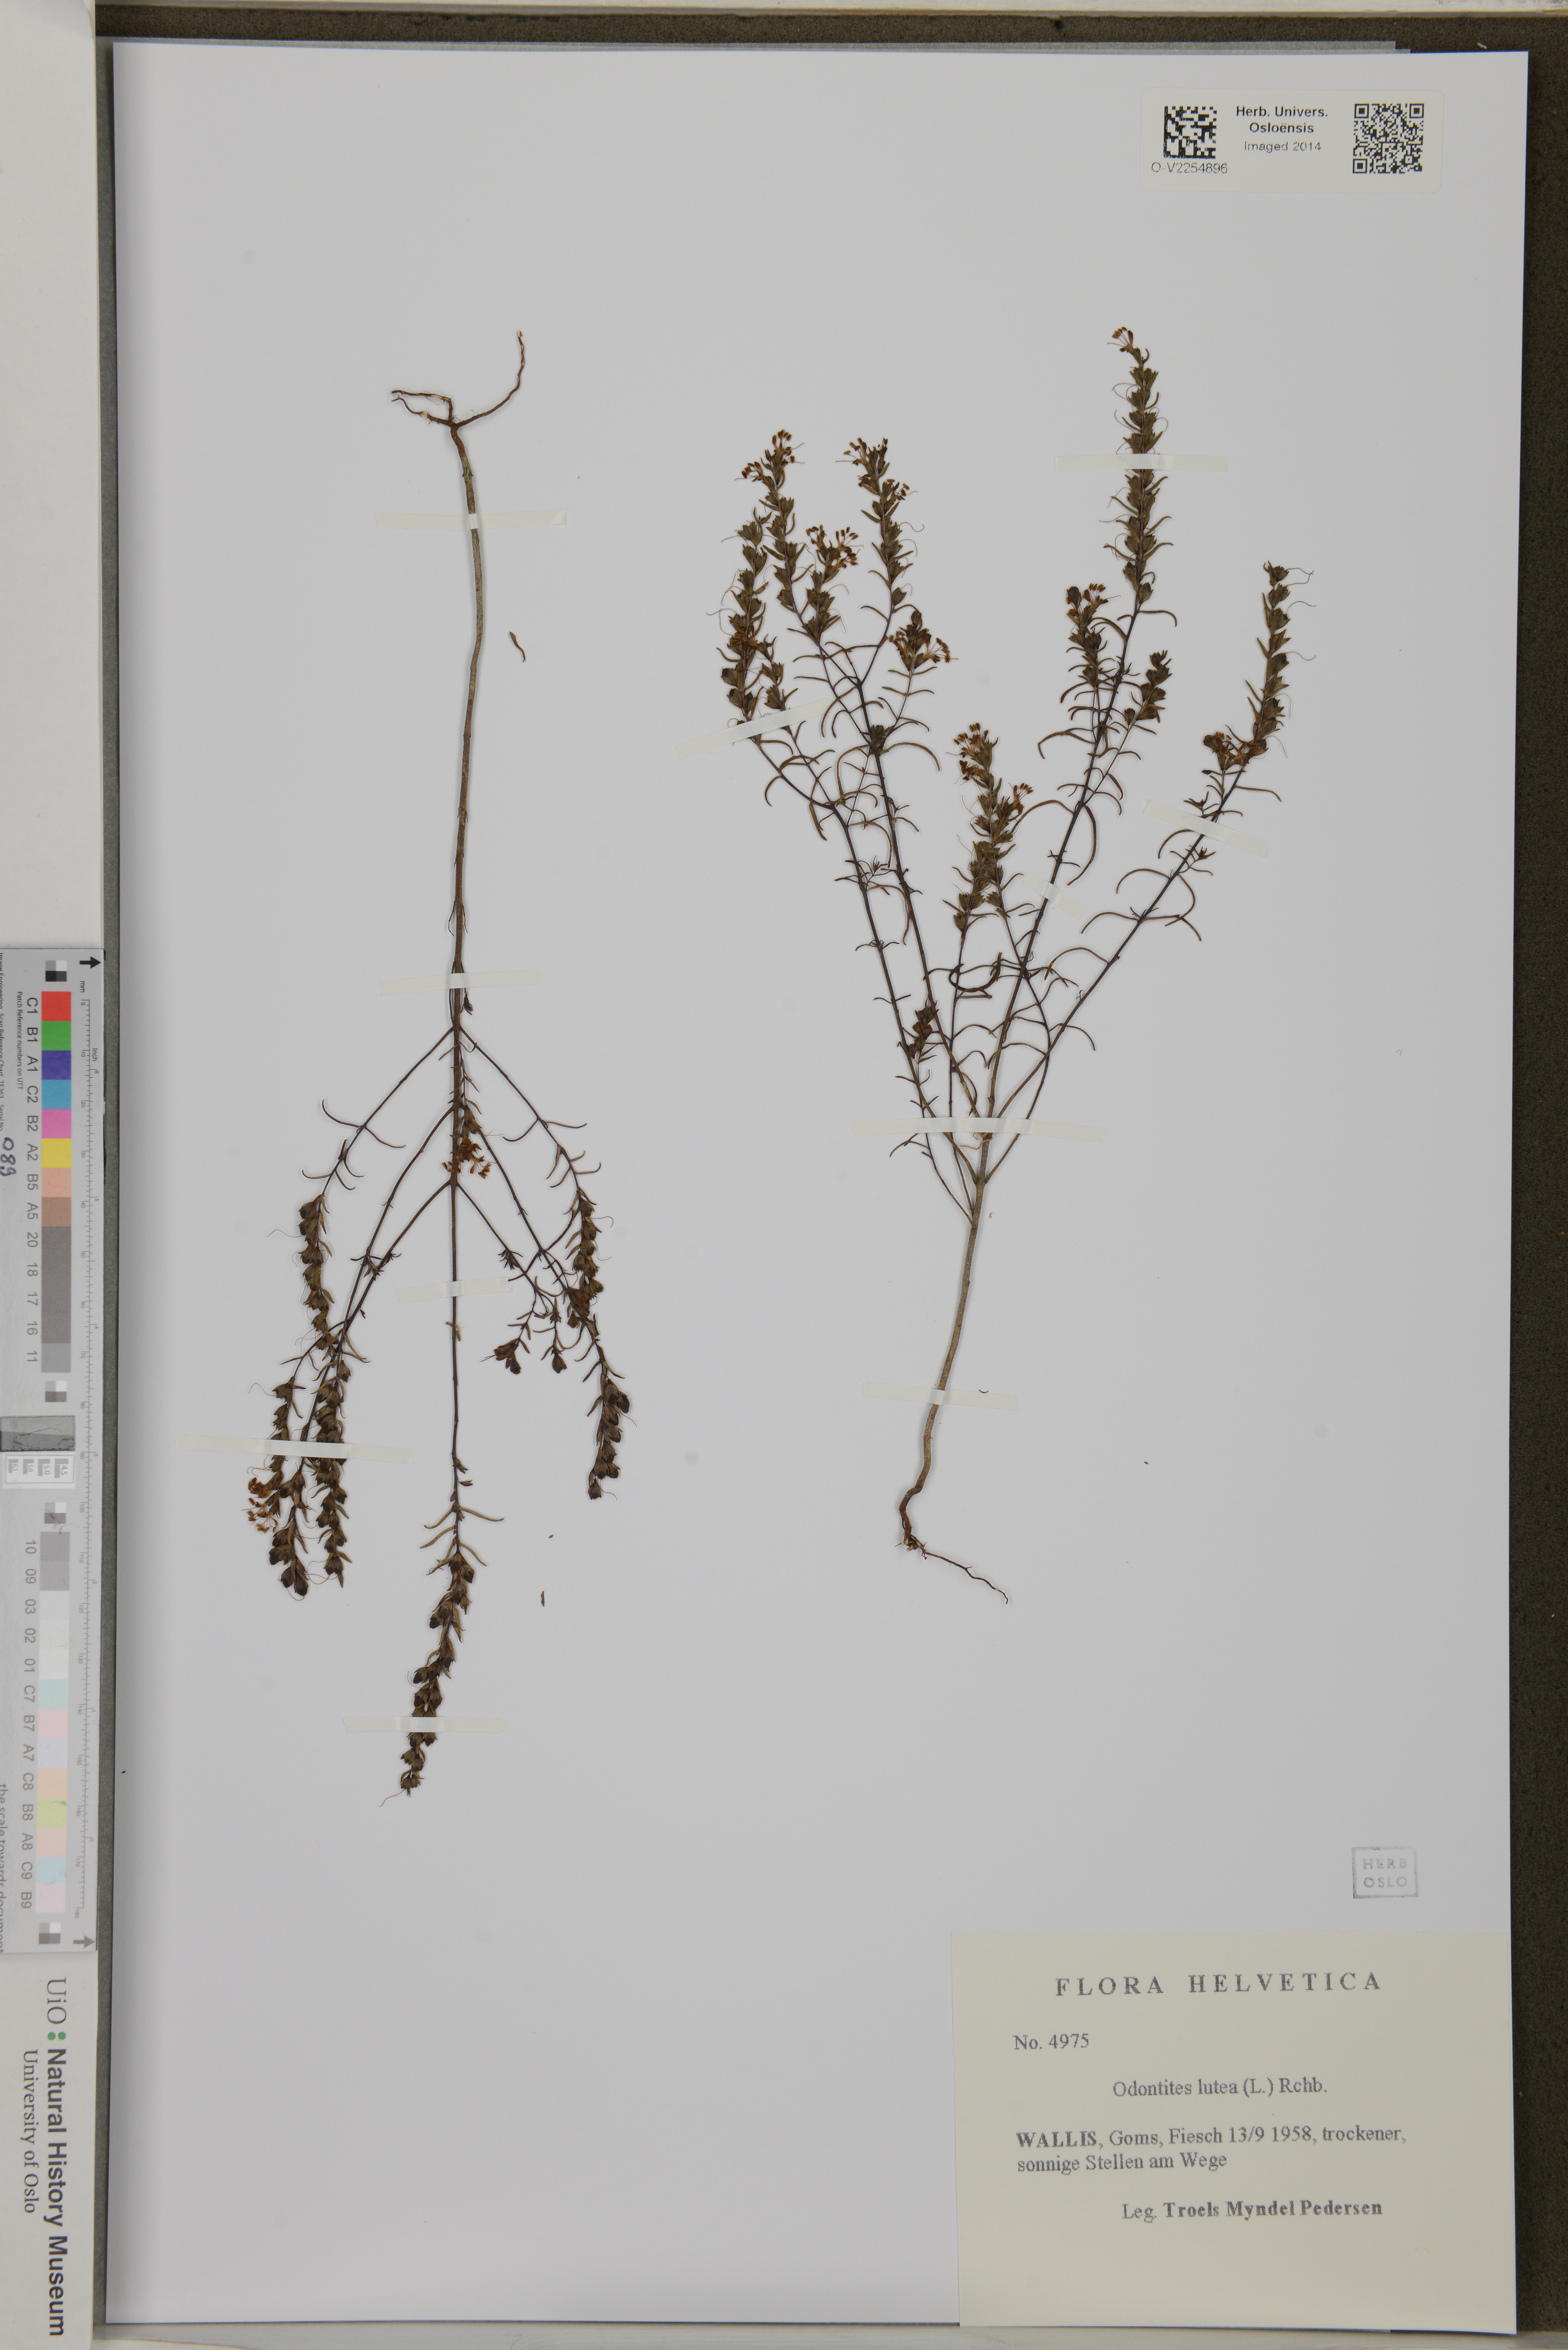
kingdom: Plantae
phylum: Tracheophyta
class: Magnoliopsida
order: Lamiales
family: Orobanchaceae
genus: Odontites
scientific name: Odontites luteus
